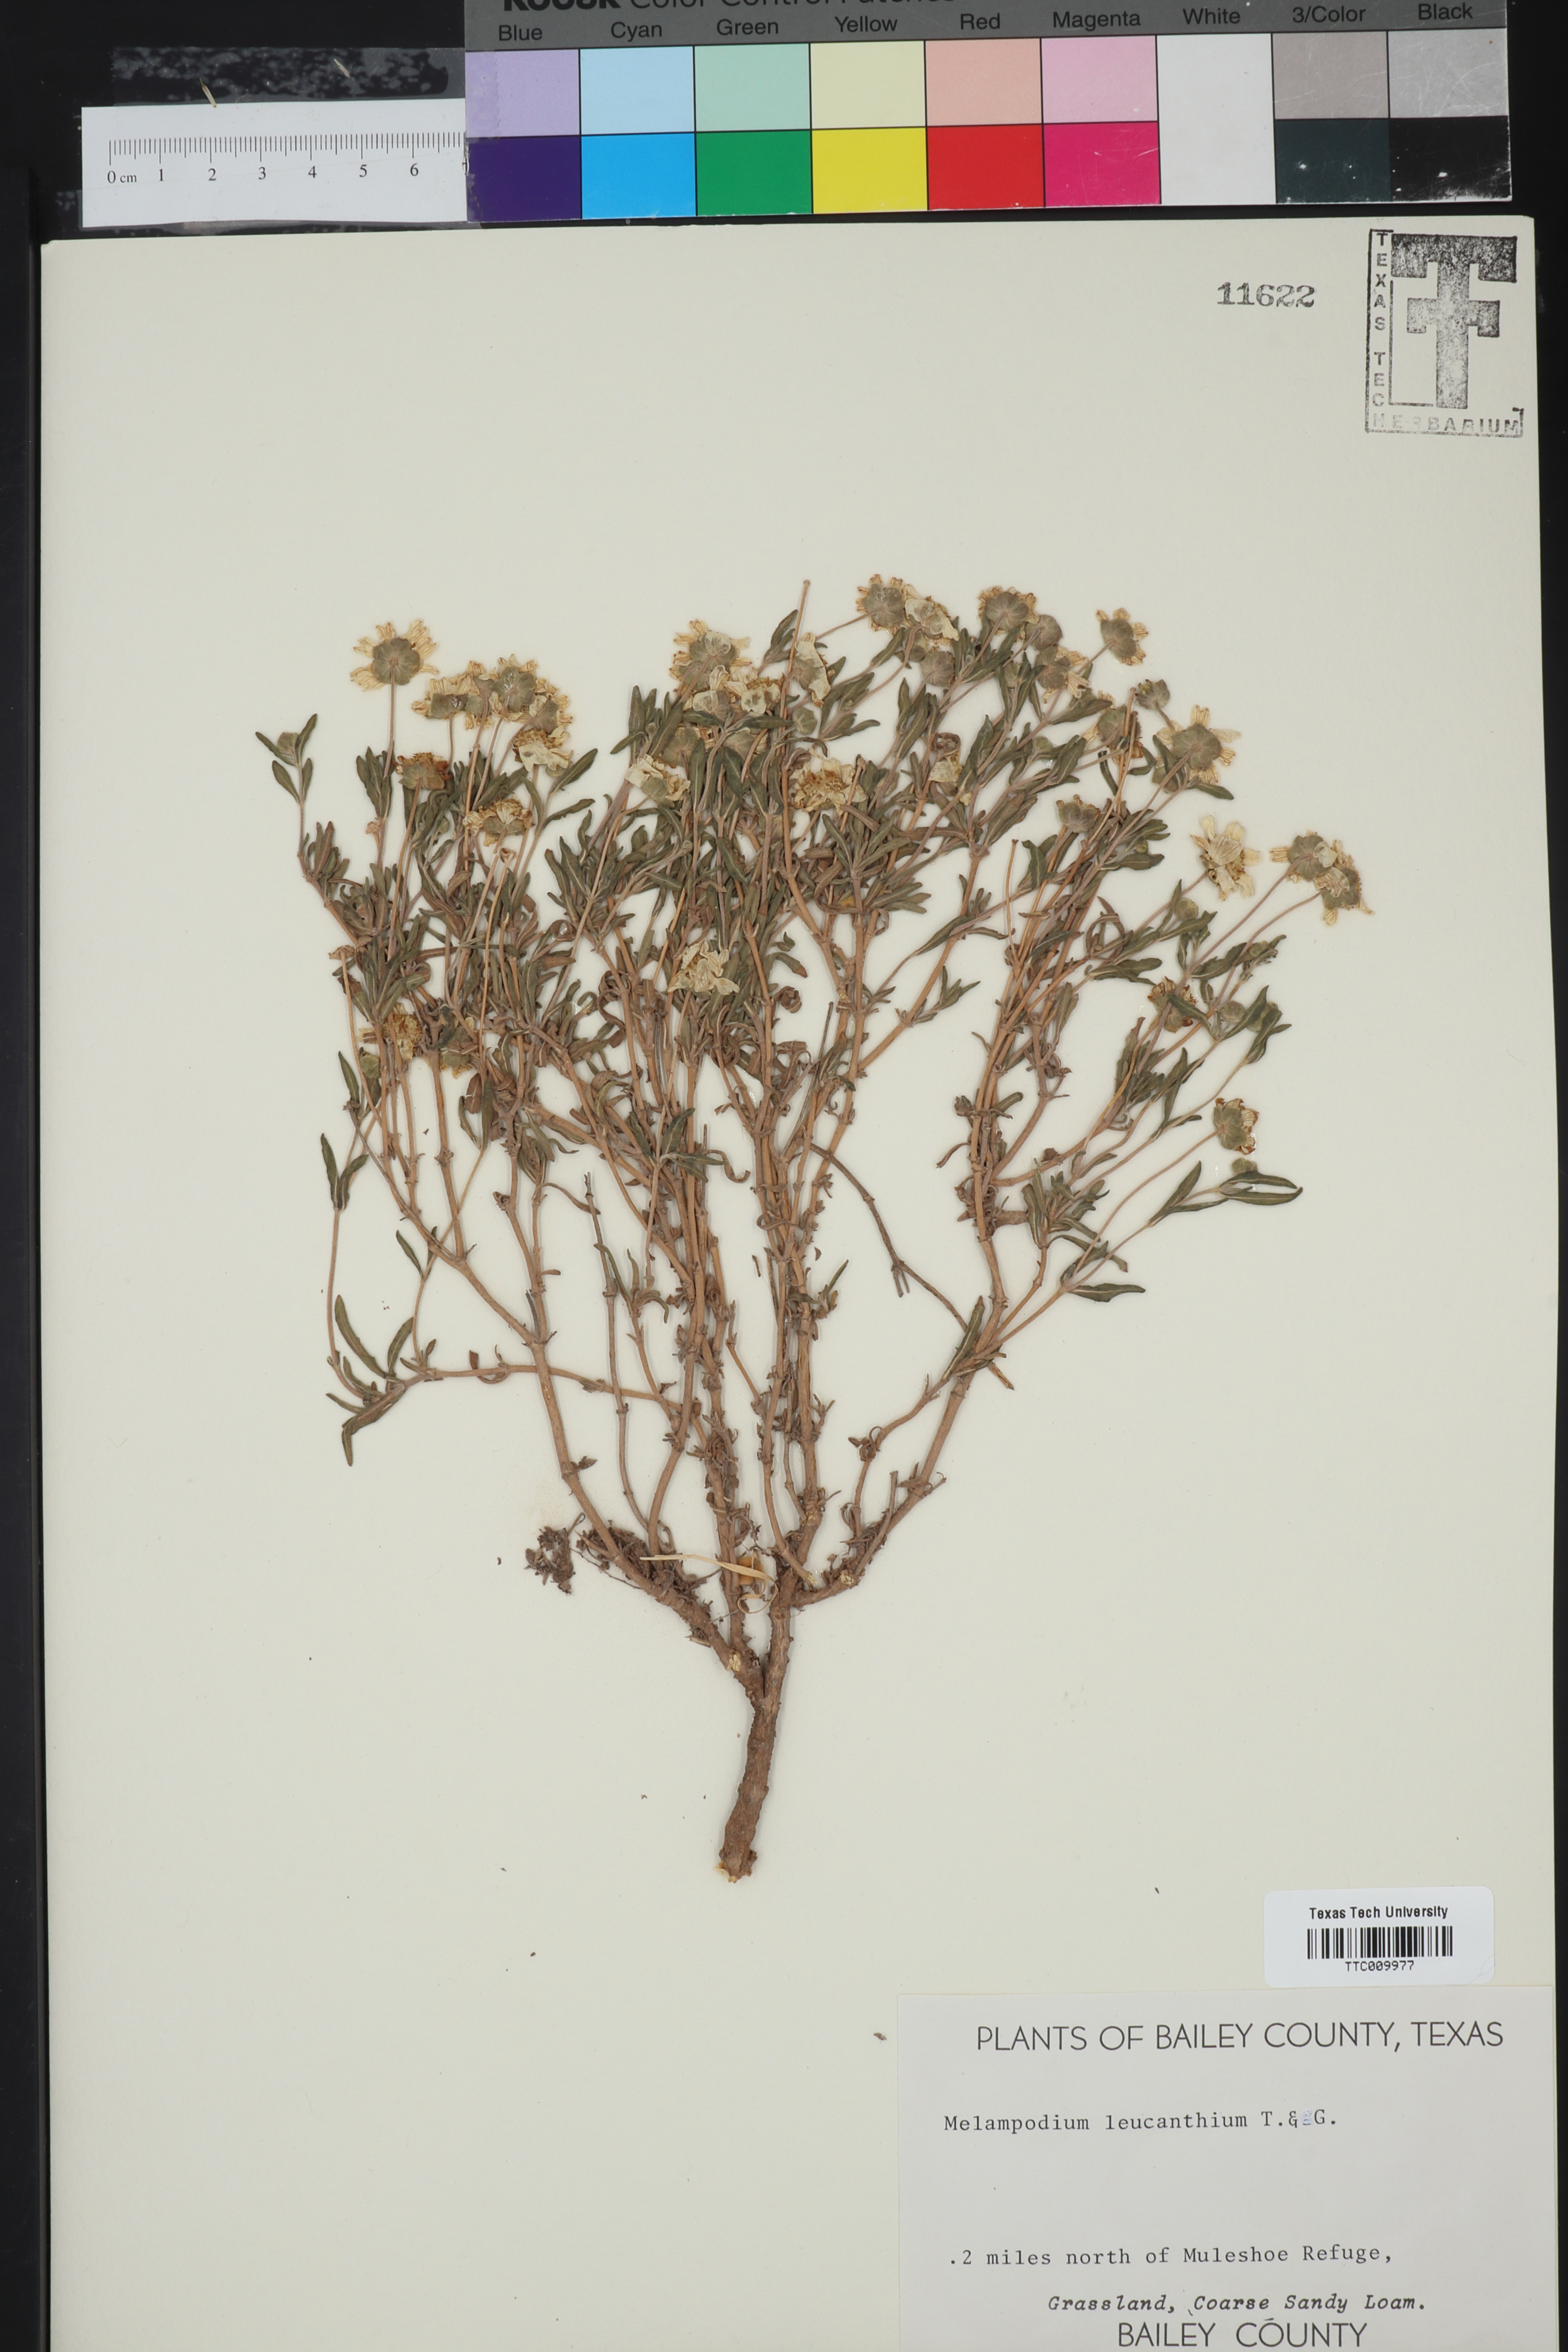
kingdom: Plantae
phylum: Tracheophyta
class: Magnoliopsida
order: Asterales
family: Asteraceae
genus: Melampodium
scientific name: Melampodium leucanthum
